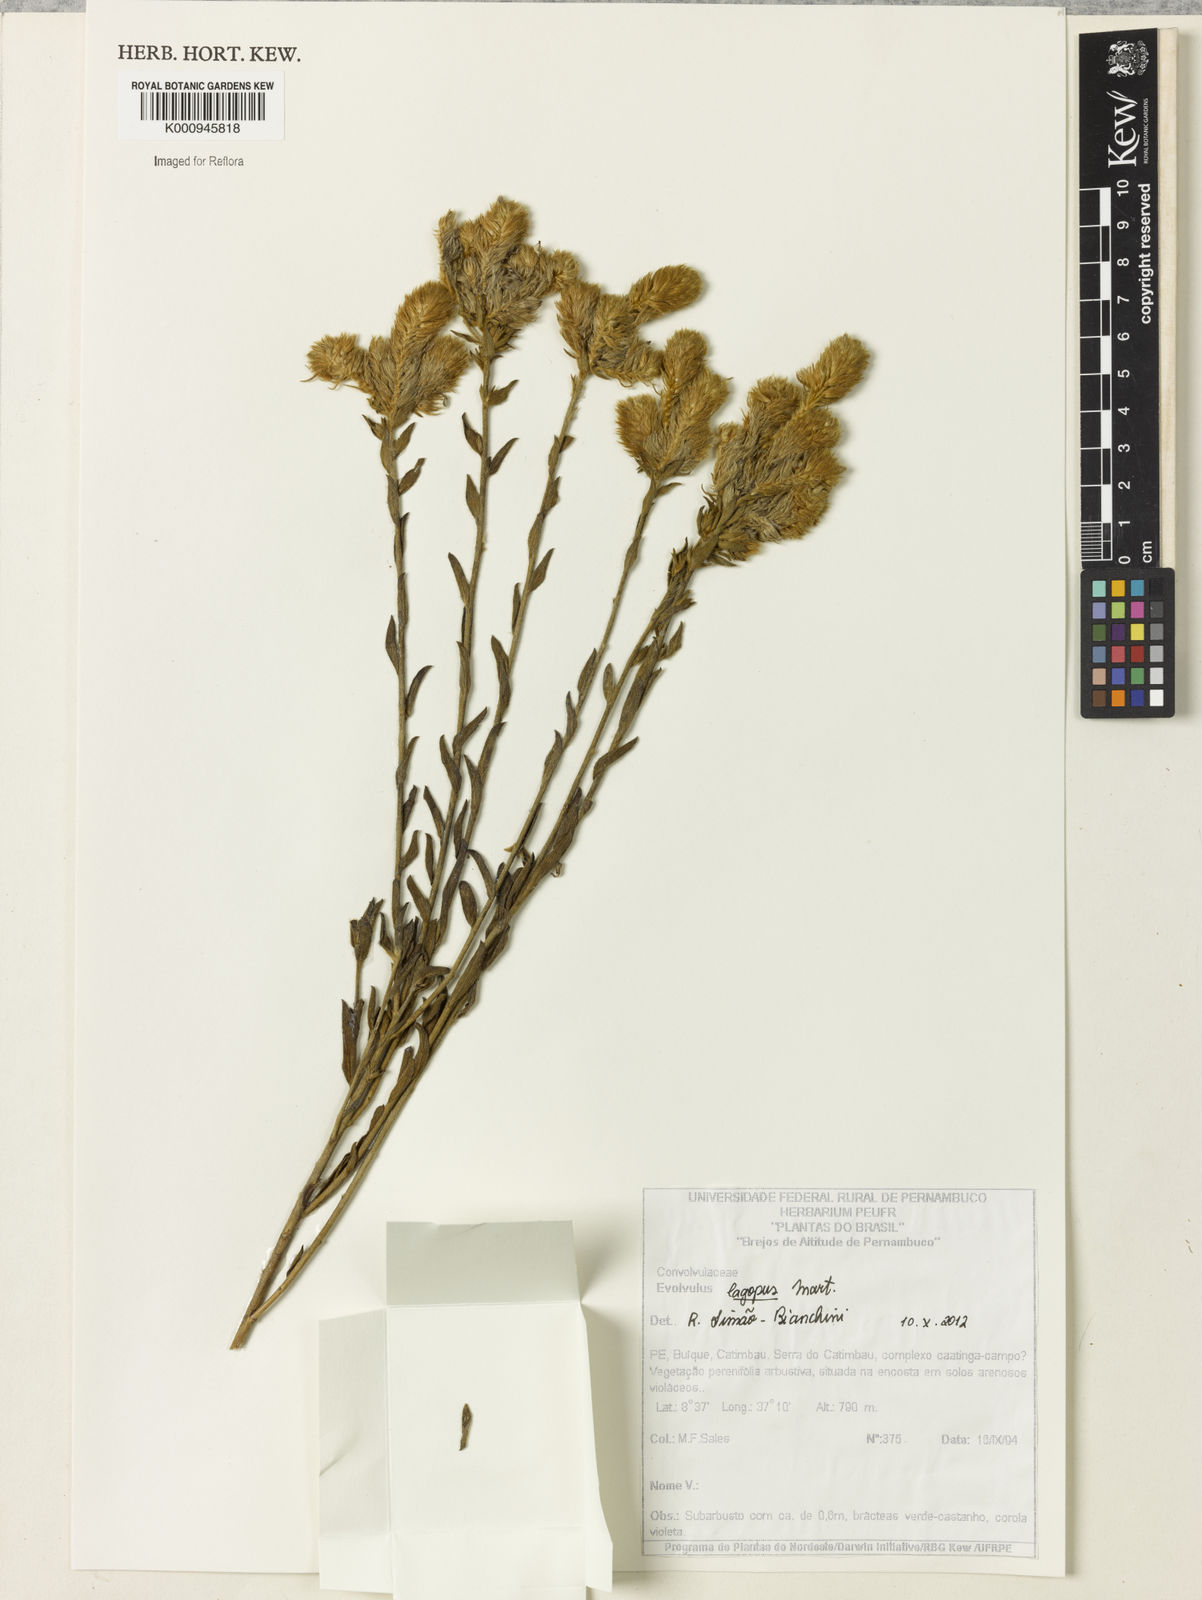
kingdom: Plantae
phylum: Tracheophyta
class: Magnoliopsida
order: Solanales
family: Convolvulaceae
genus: Evolvulus
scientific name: Evolvulus lagopus
